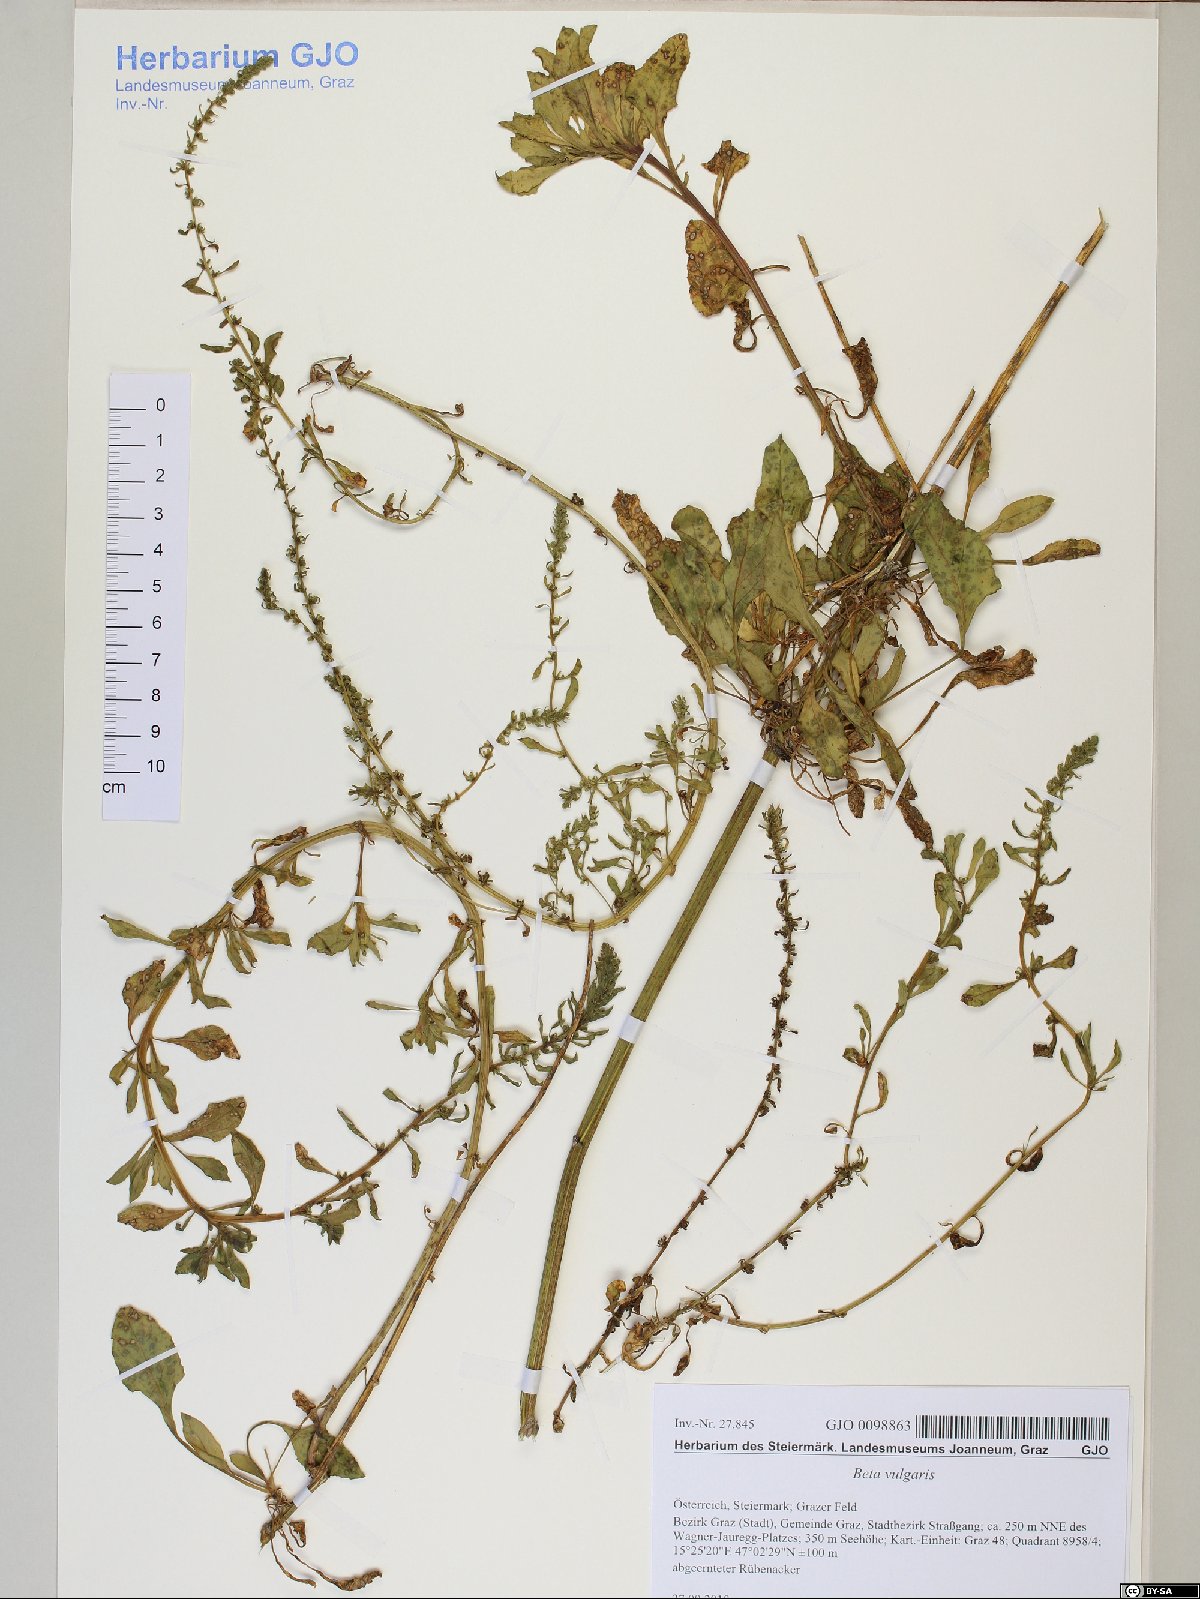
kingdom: Plantae
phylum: Tracheophyta
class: Magnoliopsida
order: Caryophyllales
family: Amaranthaceae
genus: Beta
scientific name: Beta vulgaris
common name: Beet
